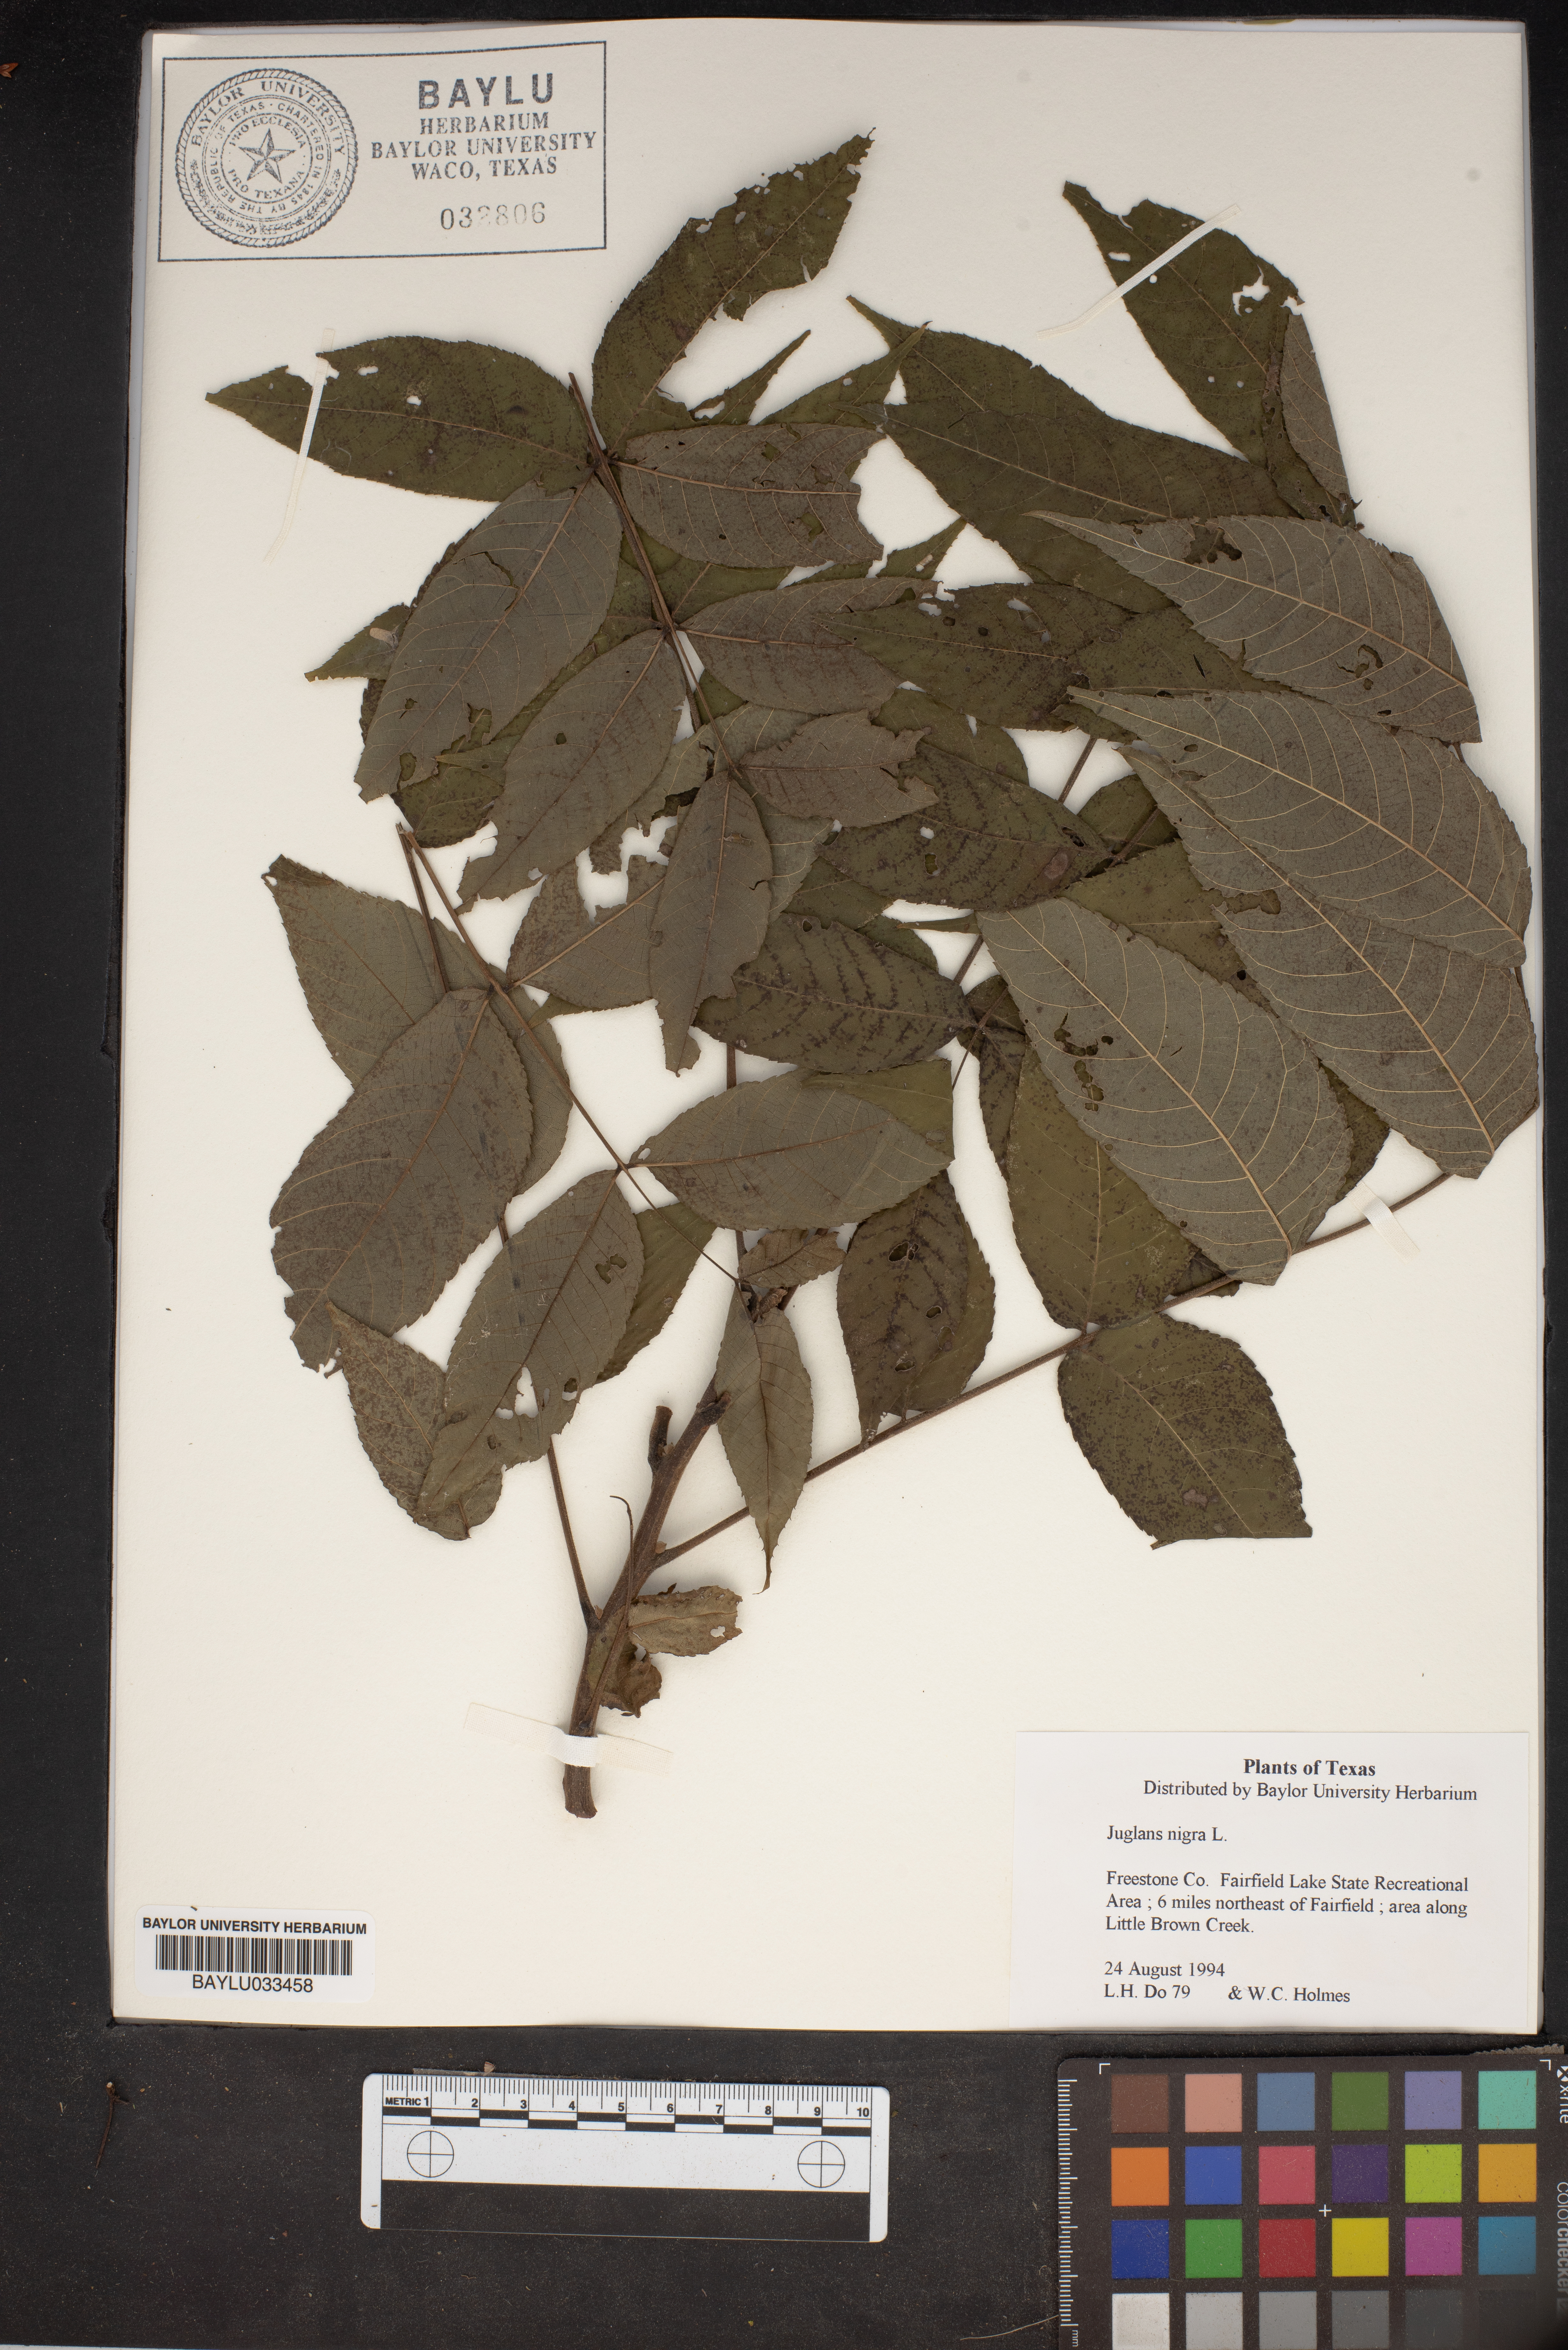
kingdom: Plantae
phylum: Tracheophyta
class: Magnoliopsida
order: Fagales
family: Juglandaceae
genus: Juglans
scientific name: Juglans nigra
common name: Black walnut
